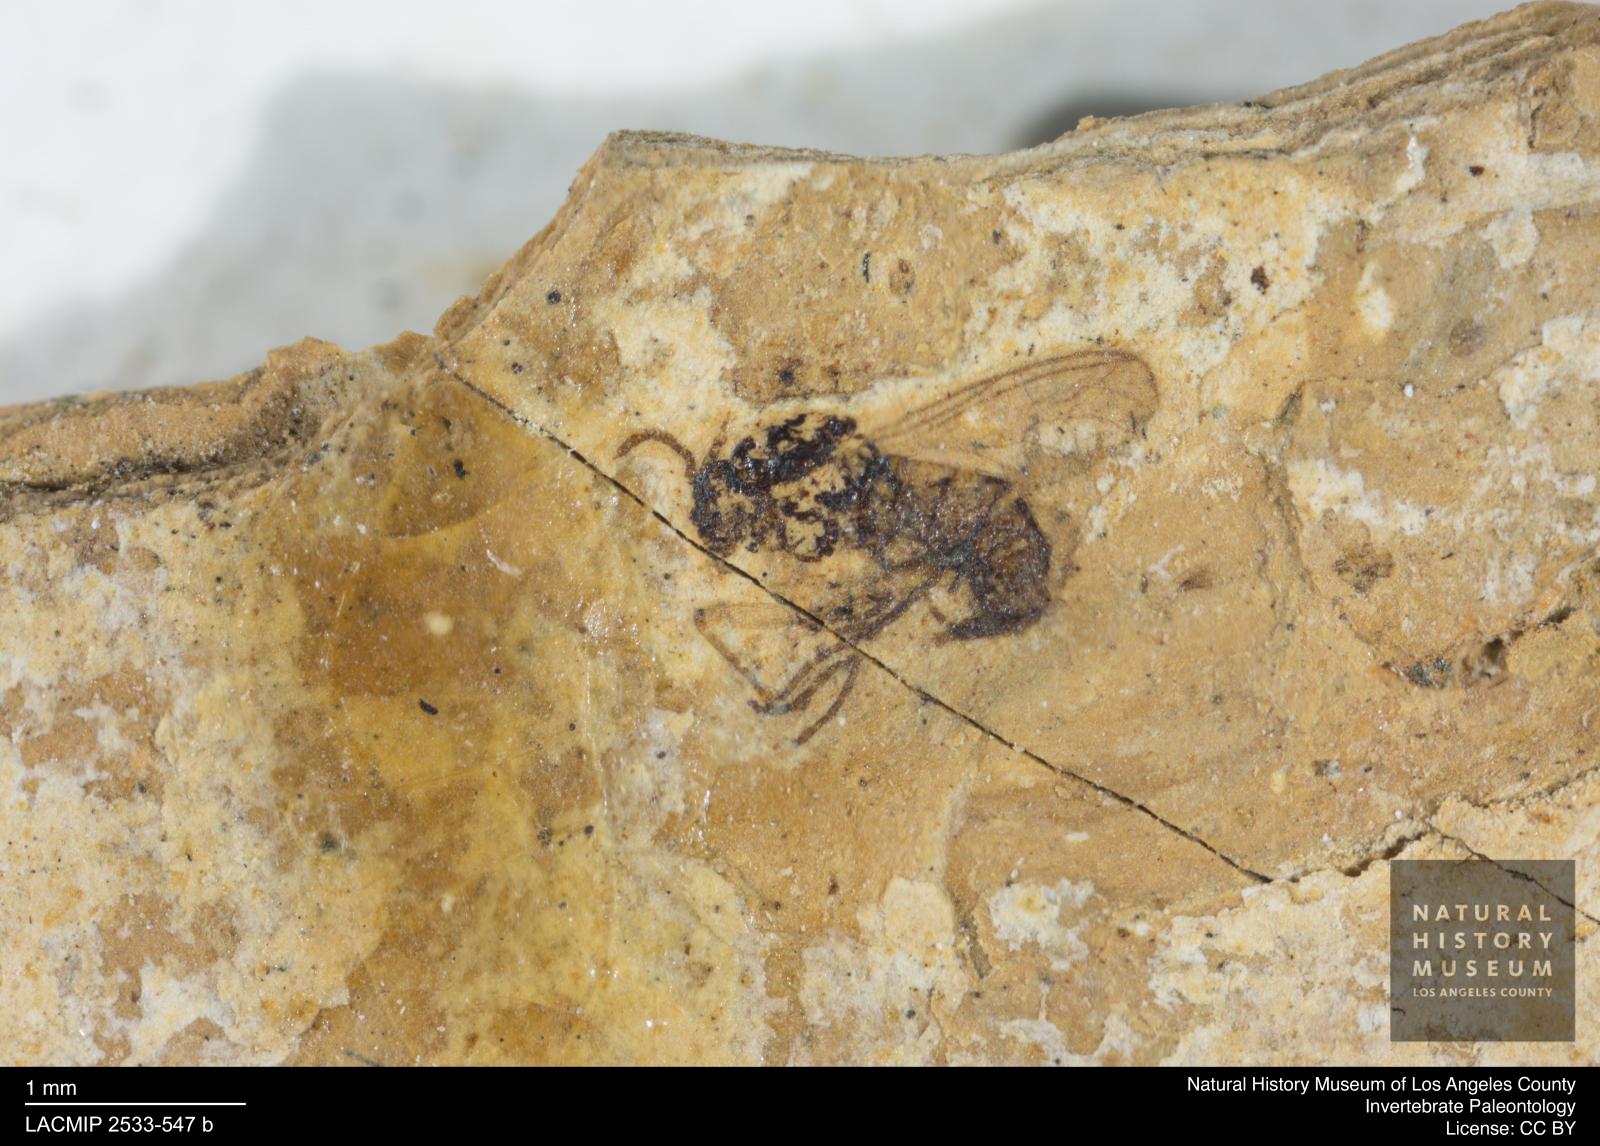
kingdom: Animalia
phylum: Arthropoda
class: Insecta
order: Diptera
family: Sciaridae
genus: Sciara
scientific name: Sciara amicula
